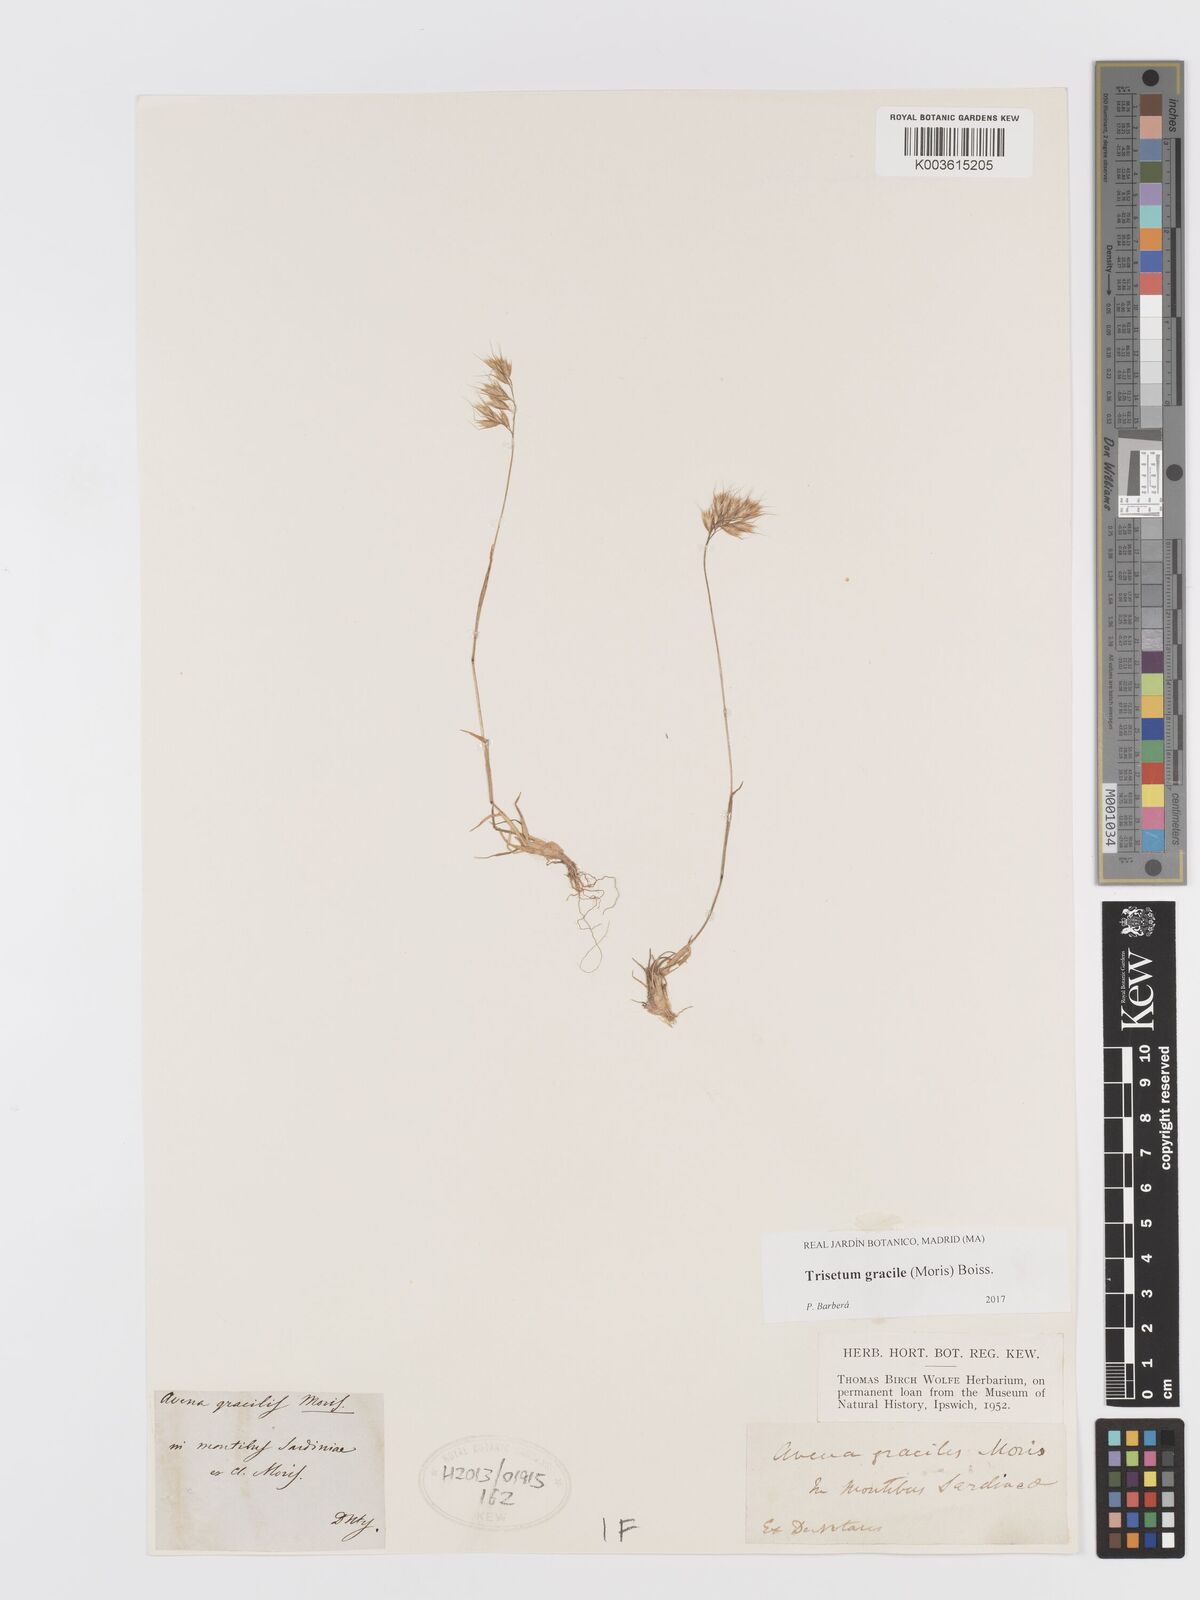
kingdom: Plantae
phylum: Tracheophyta
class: Liliopsida
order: Poales
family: Poaceae
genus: Trisetum
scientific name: Trisetum gracile
